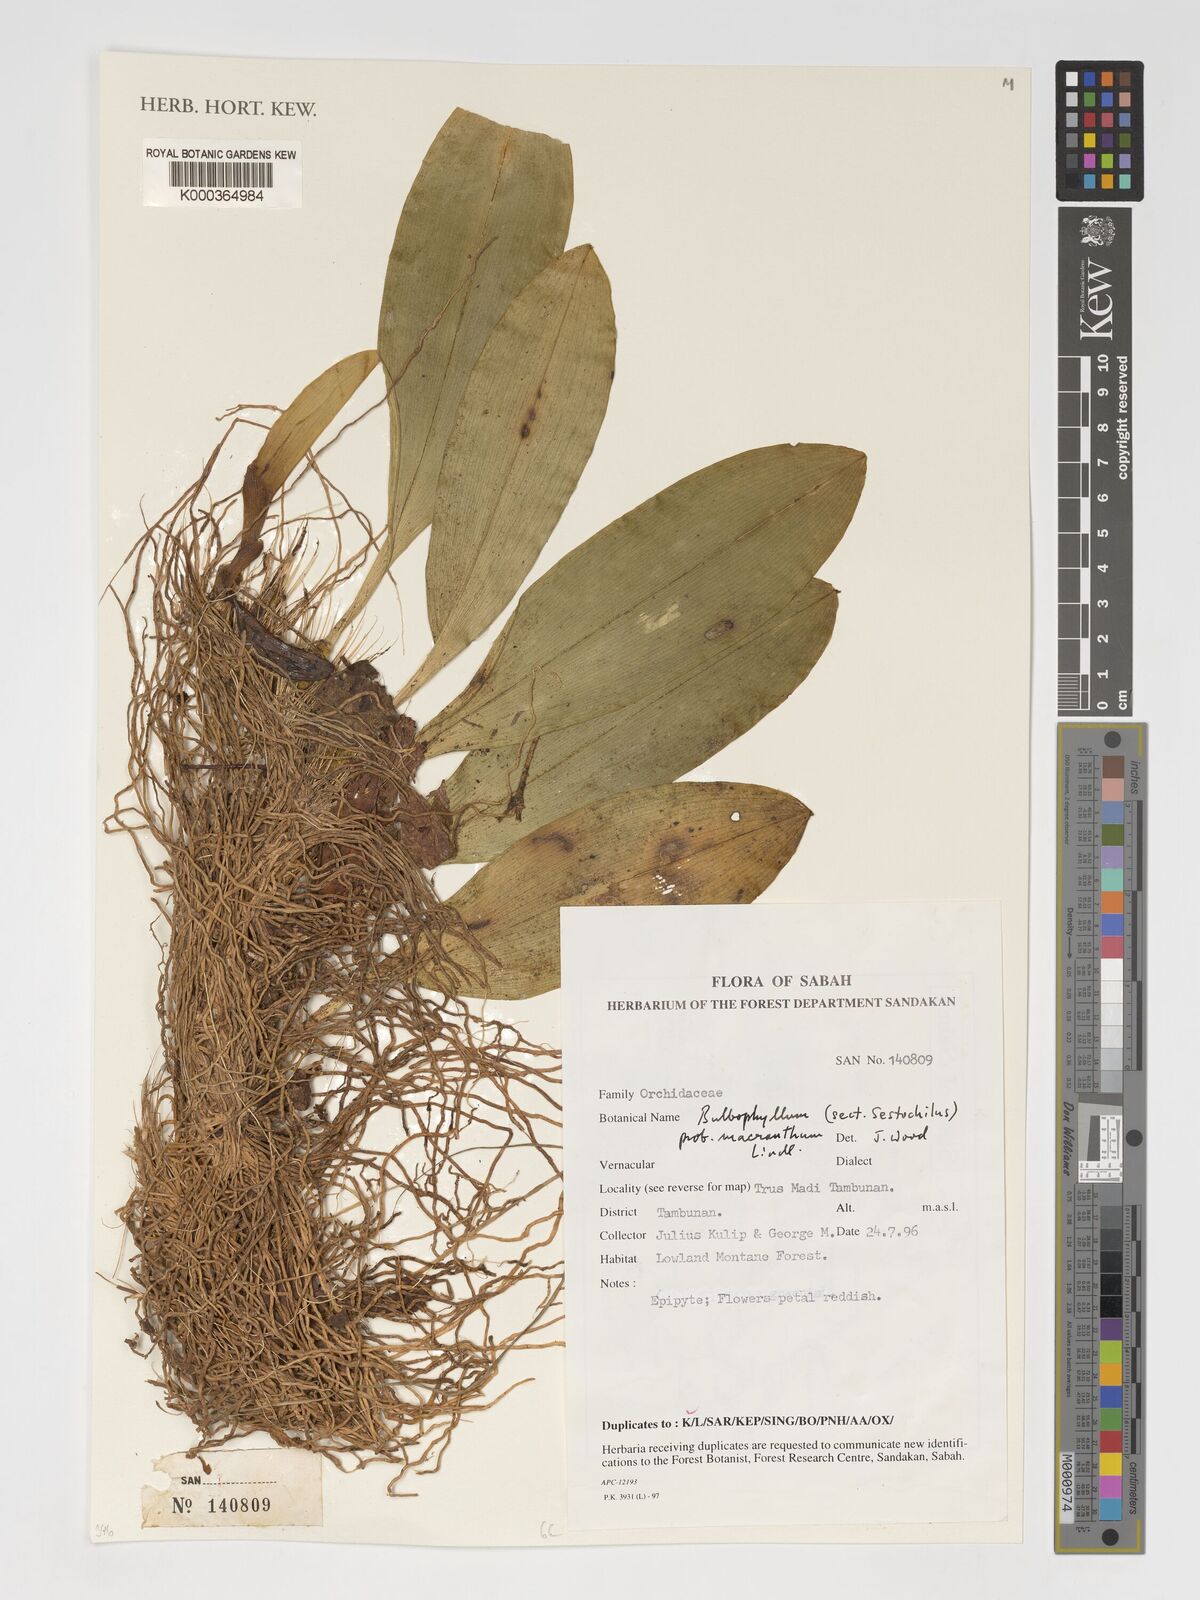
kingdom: Plantae
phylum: Tracheophyta
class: Liliopsida
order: Asparagales
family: Orchidaceae
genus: Bulbophyllum
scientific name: Bulbophyllum macranthum
